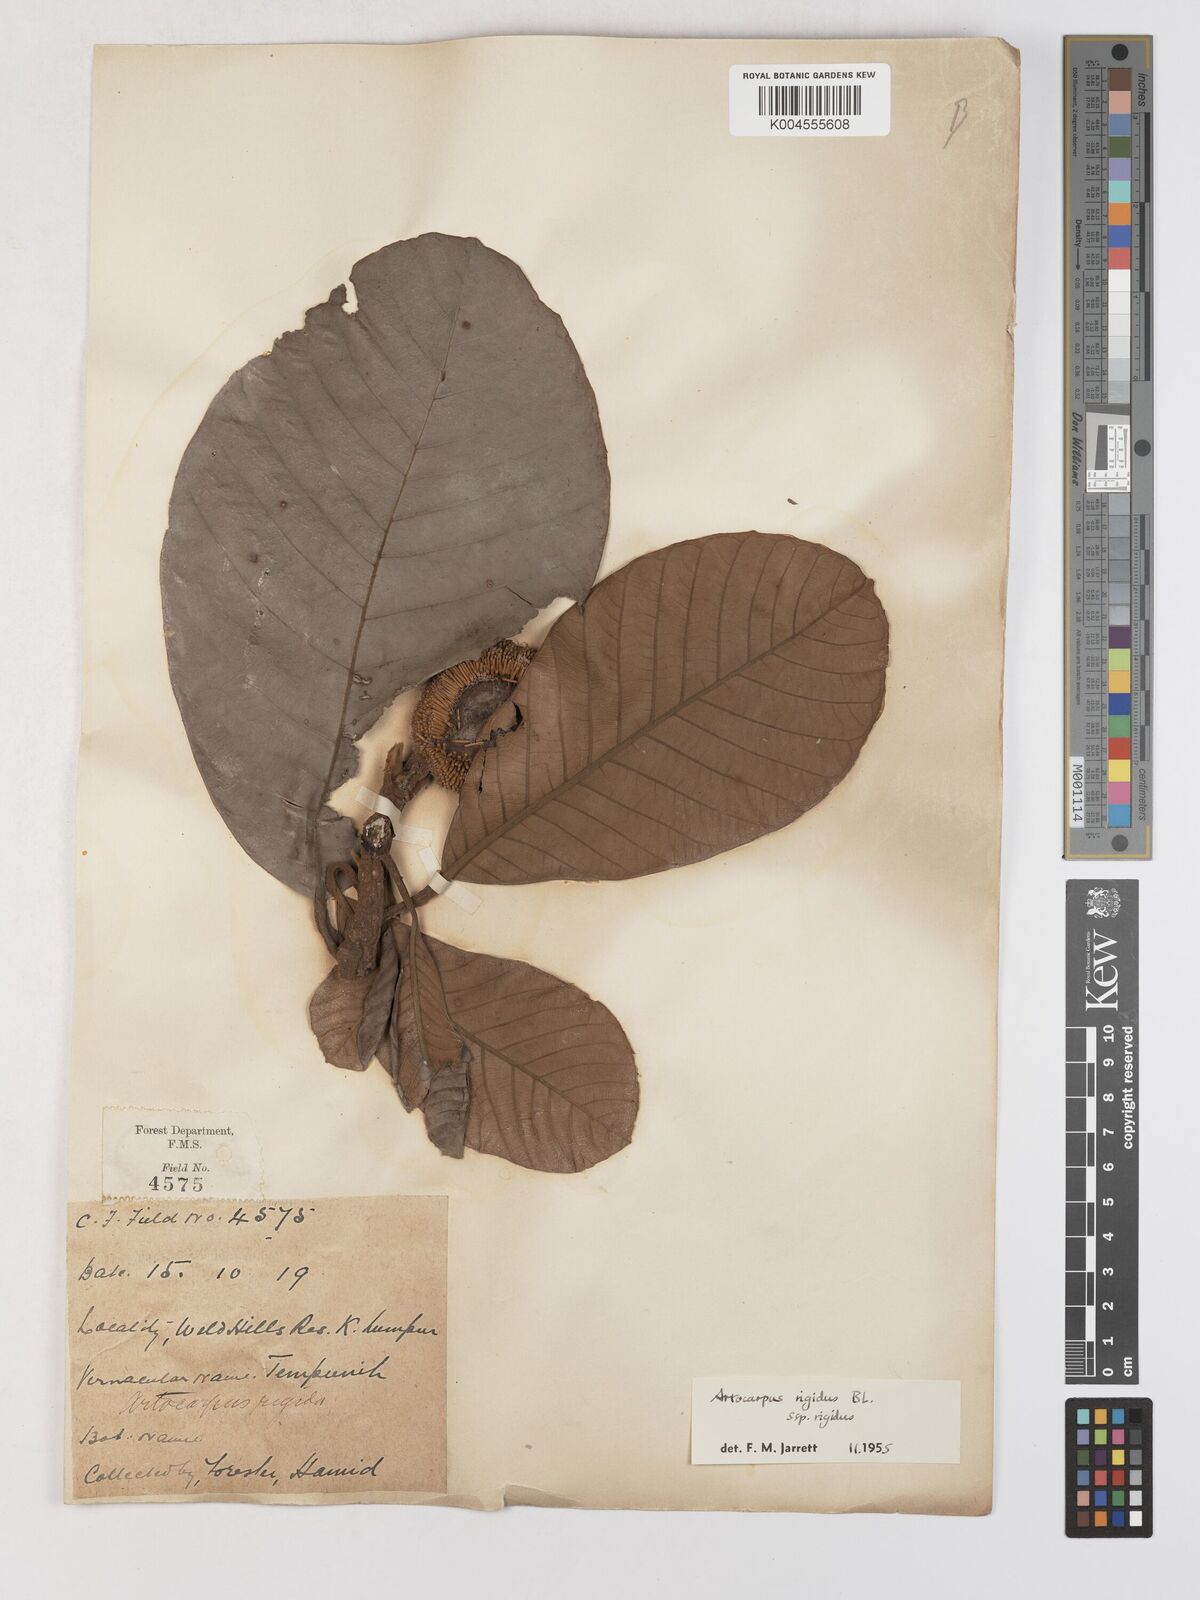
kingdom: Plantae
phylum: Tracheophyta
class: Magnoliopsida
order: Rosales
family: Moraceae
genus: Artocarpus
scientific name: Artocarpus
